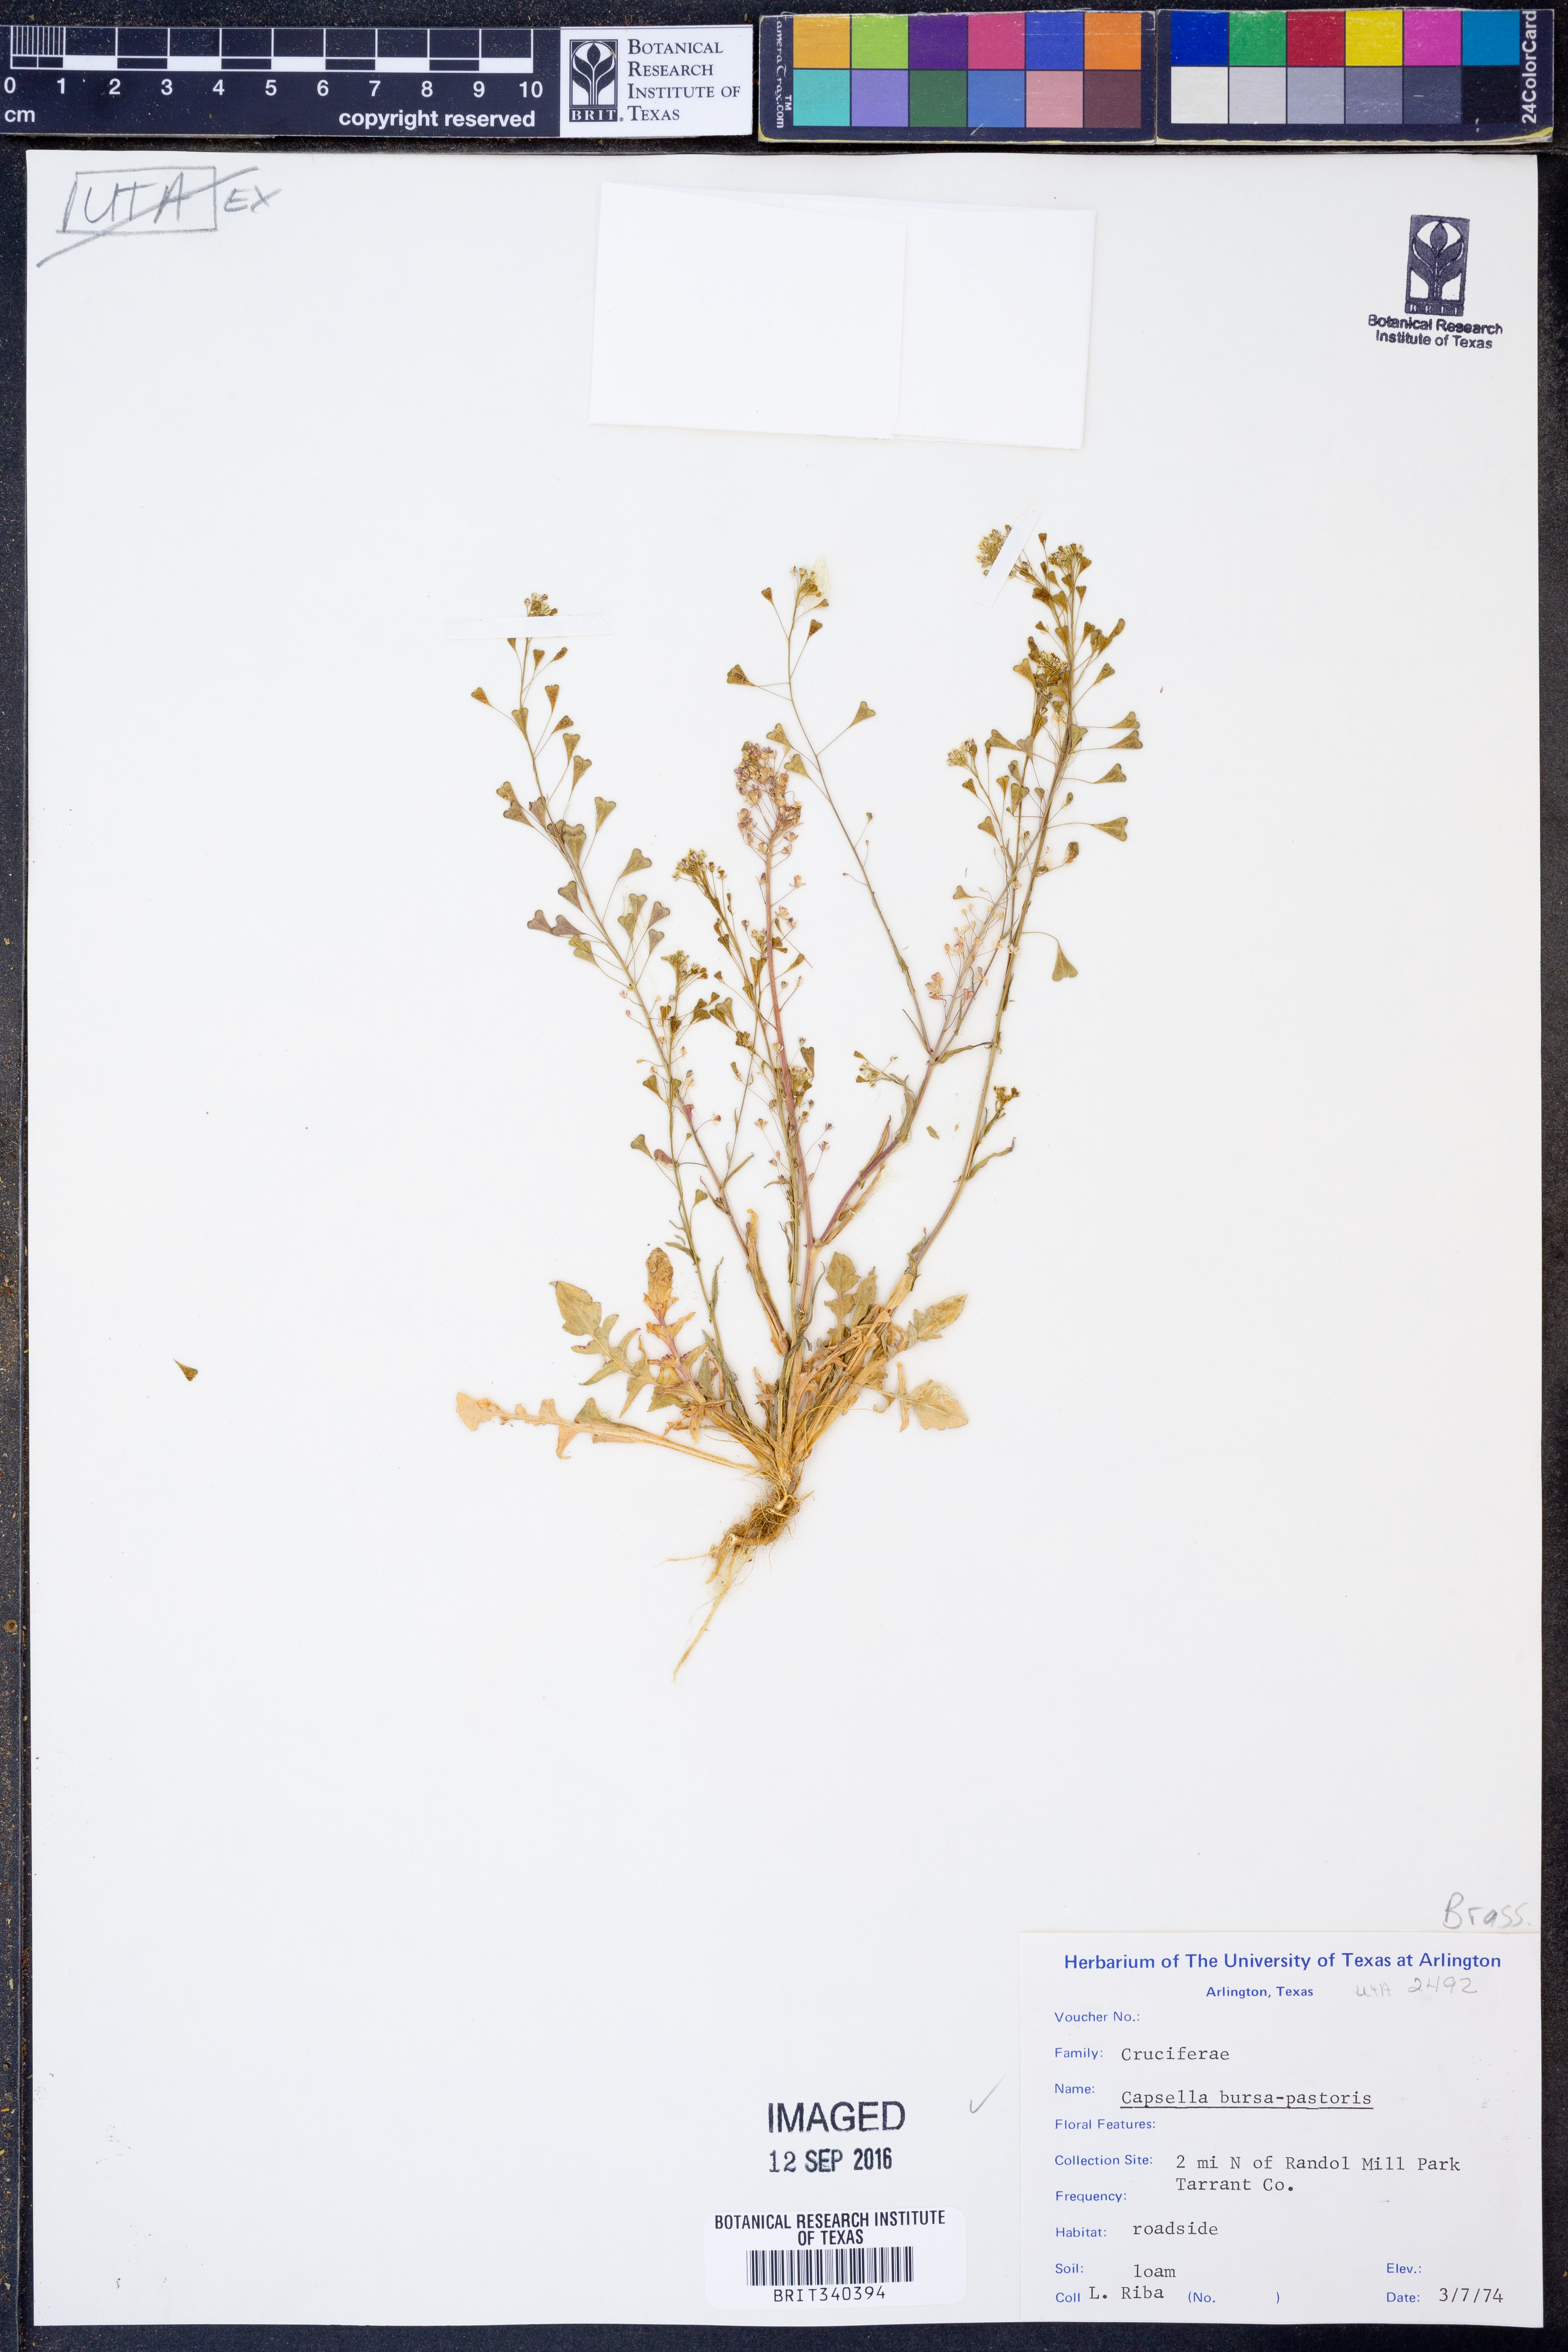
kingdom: Plantae
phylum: Tracheophyta
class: Magnoliopsida
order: Brassicales
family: Brassicaceae
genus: Capsella
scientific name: Capsella bursa-pastoris
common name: Shepherd's purse
